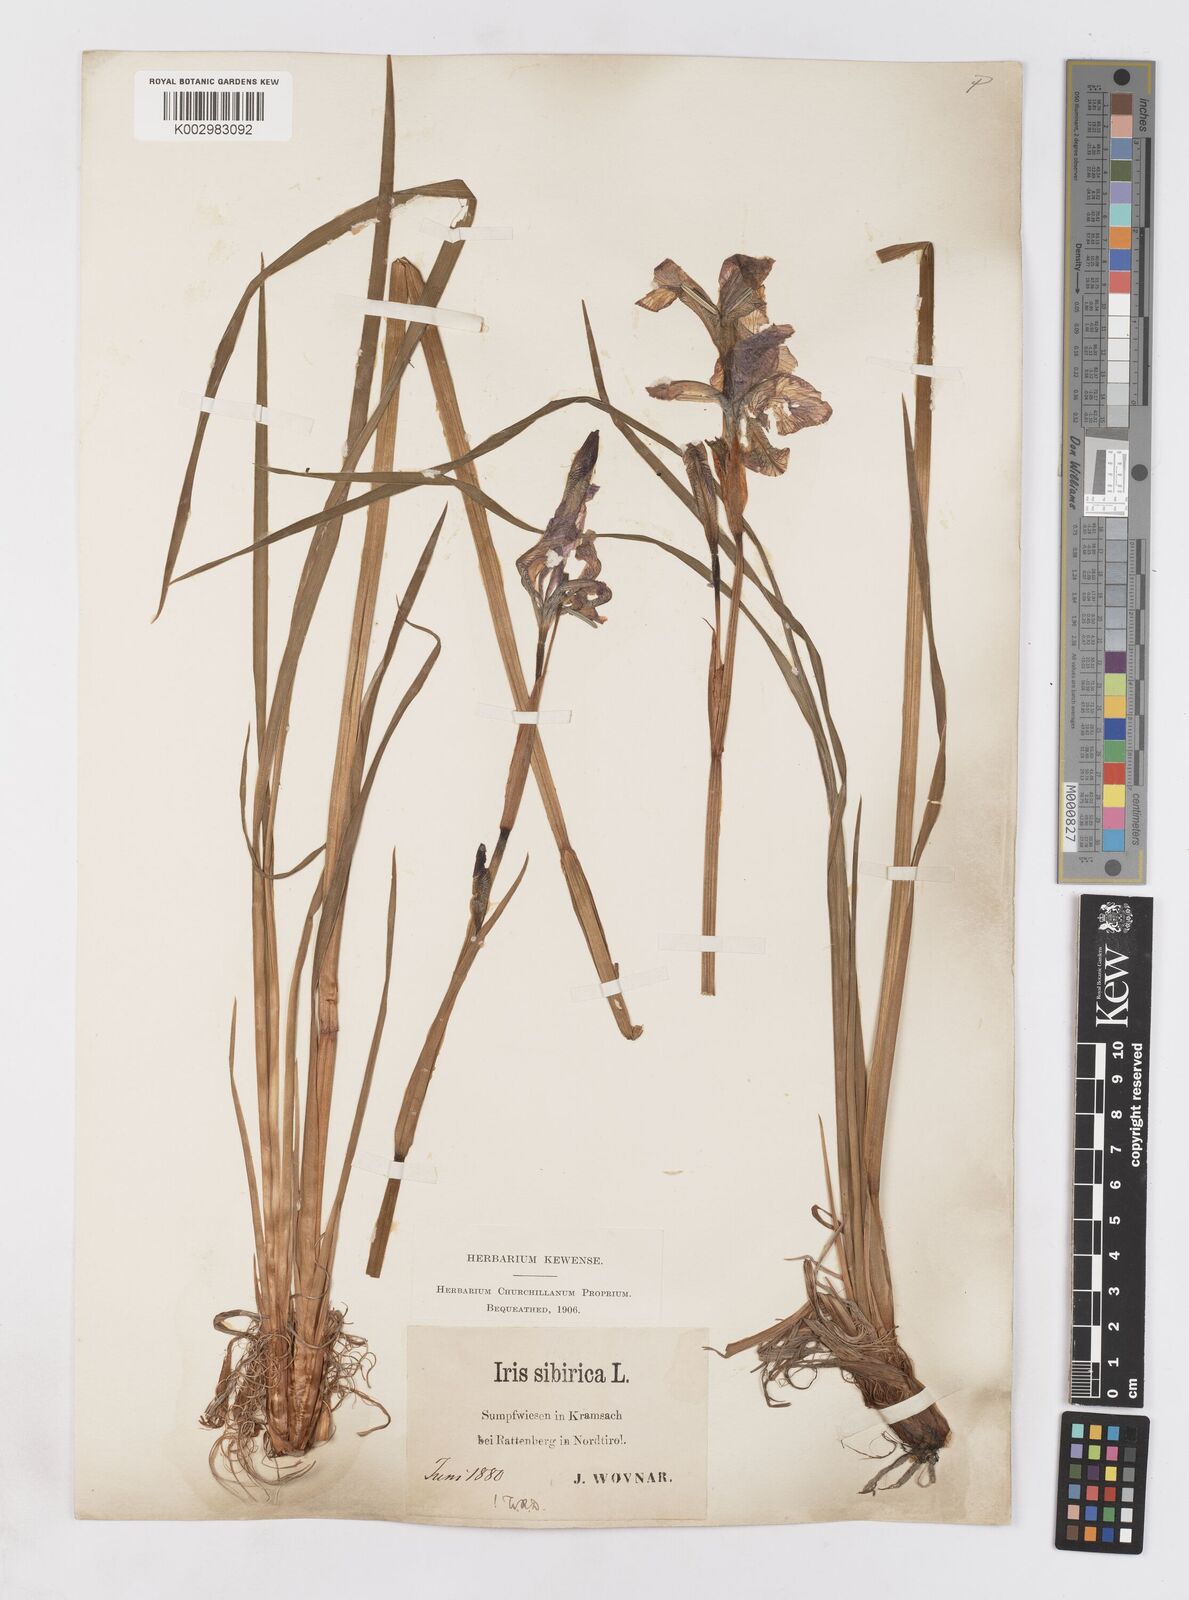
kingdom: Plantae
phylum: Tracheophyta
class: Liliopsida
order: Asparagales
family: Iridaceae
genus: Iris
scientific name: Iris sibirica
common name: Siberian iris
